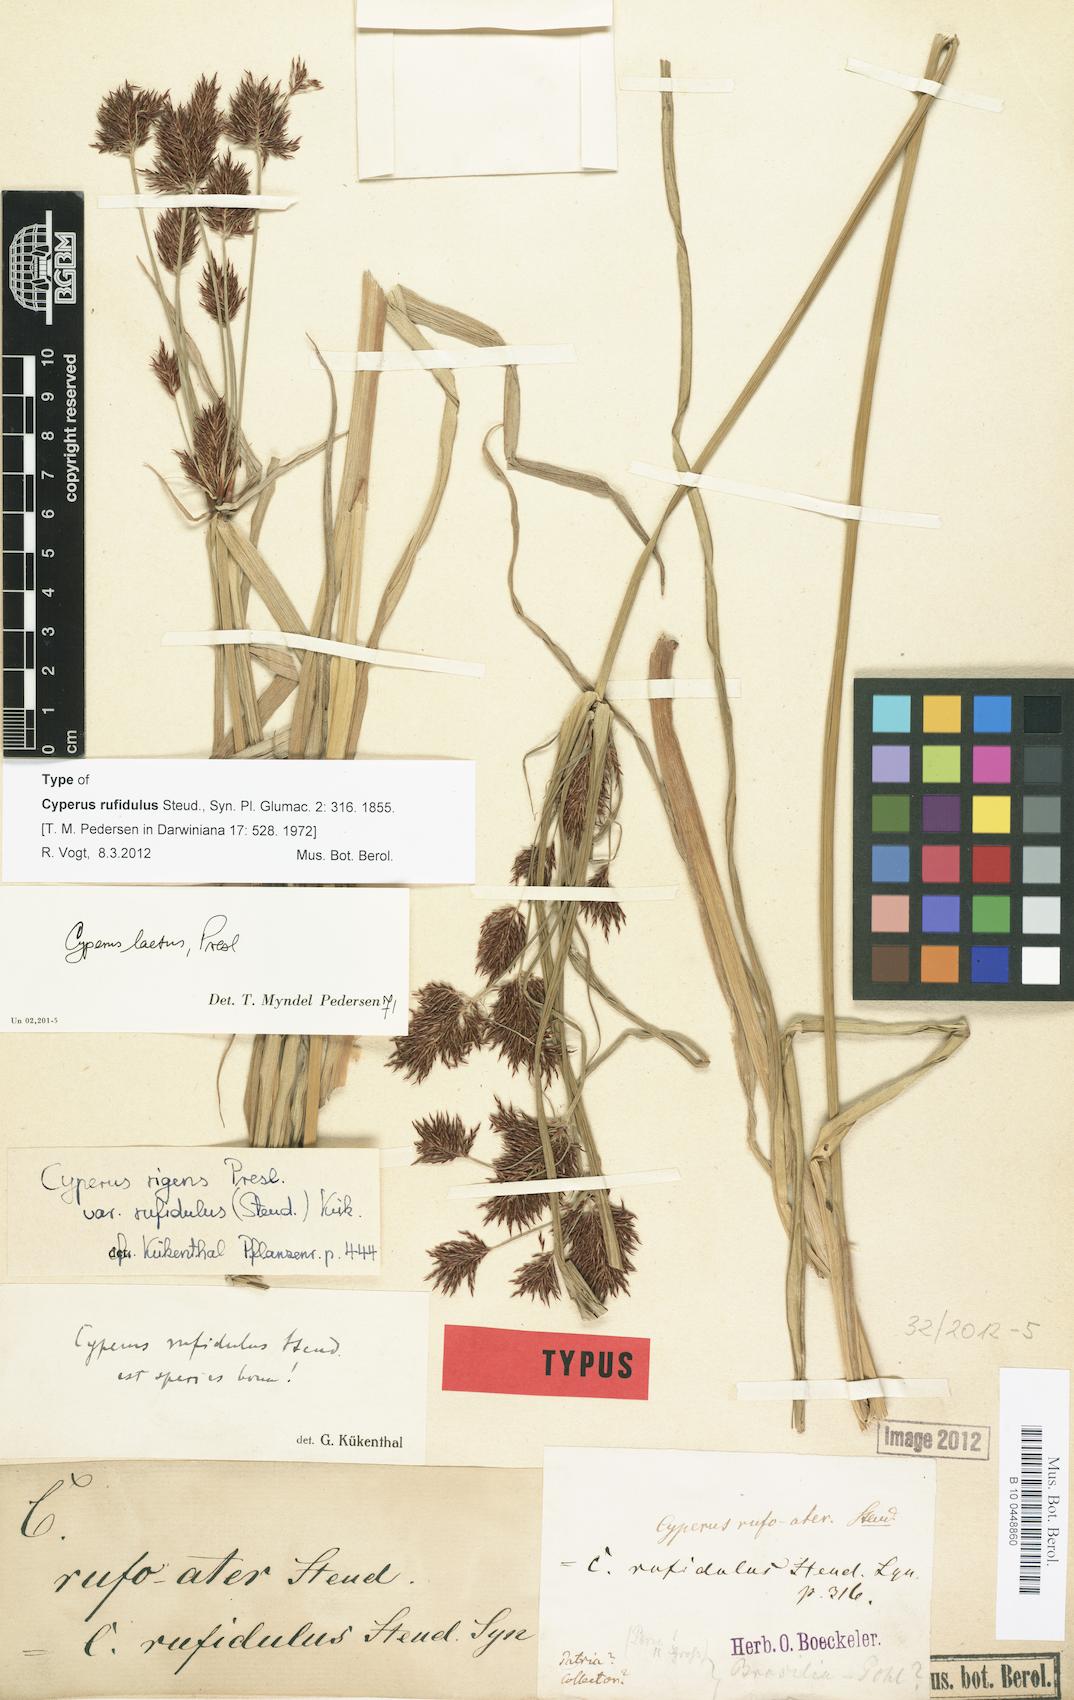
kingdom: Plantae
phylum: Tracheophyta
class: Liliopsida
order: Poales
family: Cyperaceae
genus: Cyperus
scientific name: Cyperus rigens
